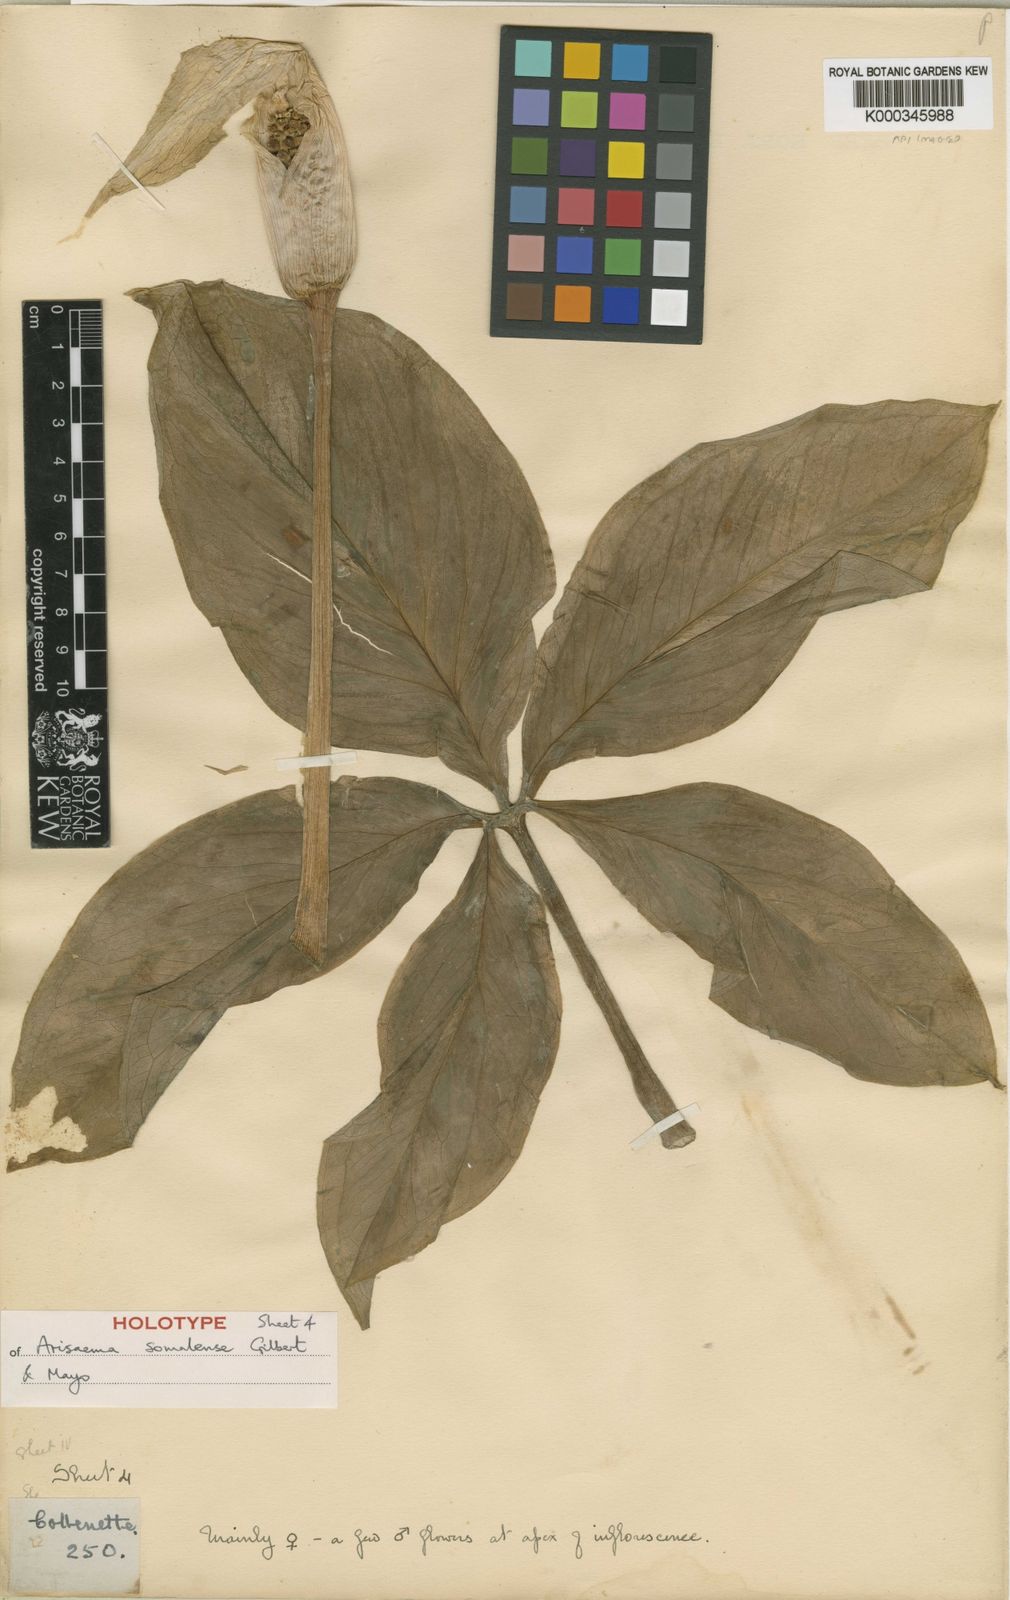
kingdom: Plantae
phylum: Tracheophyta
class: Liliopsida
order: Alismatales
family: Araceae
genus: Arisaema
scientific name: Arisaema somalense
